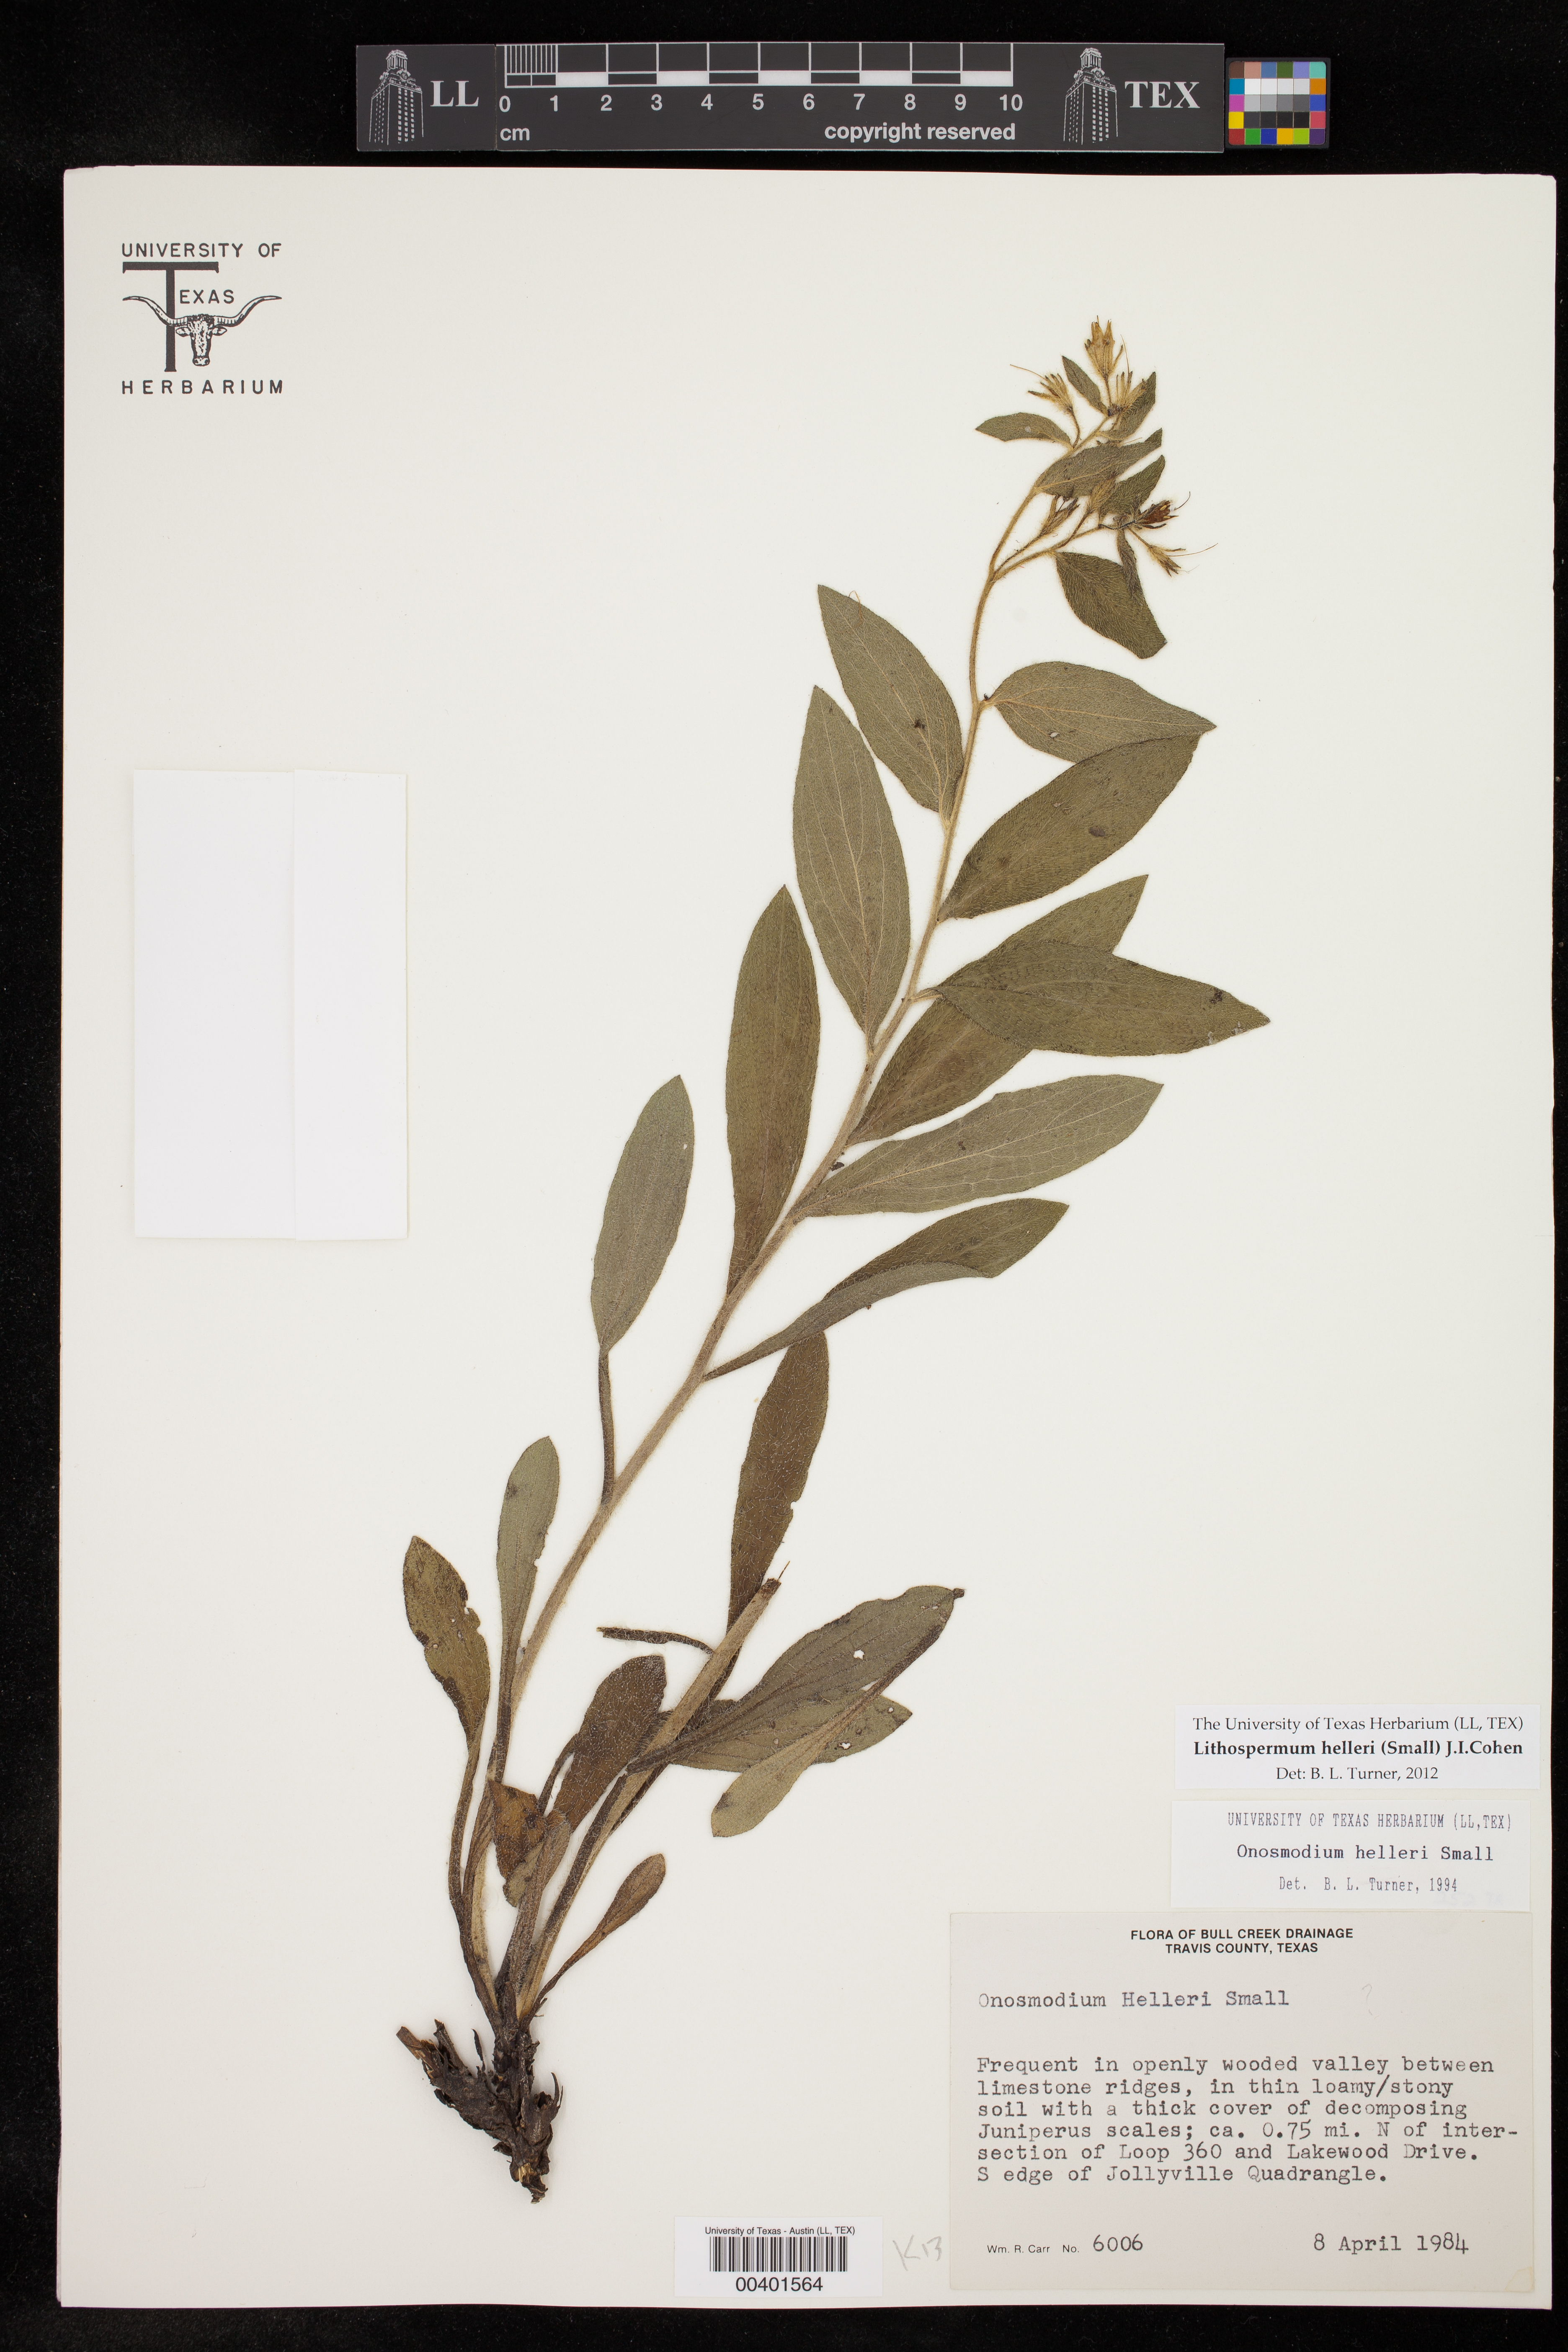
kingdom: Plantae
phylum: Tracheophyta
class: Magnoliopsida
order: Boraginales
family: Boraginaceae
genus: Lithospermum
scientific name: Lithospermum helleri
